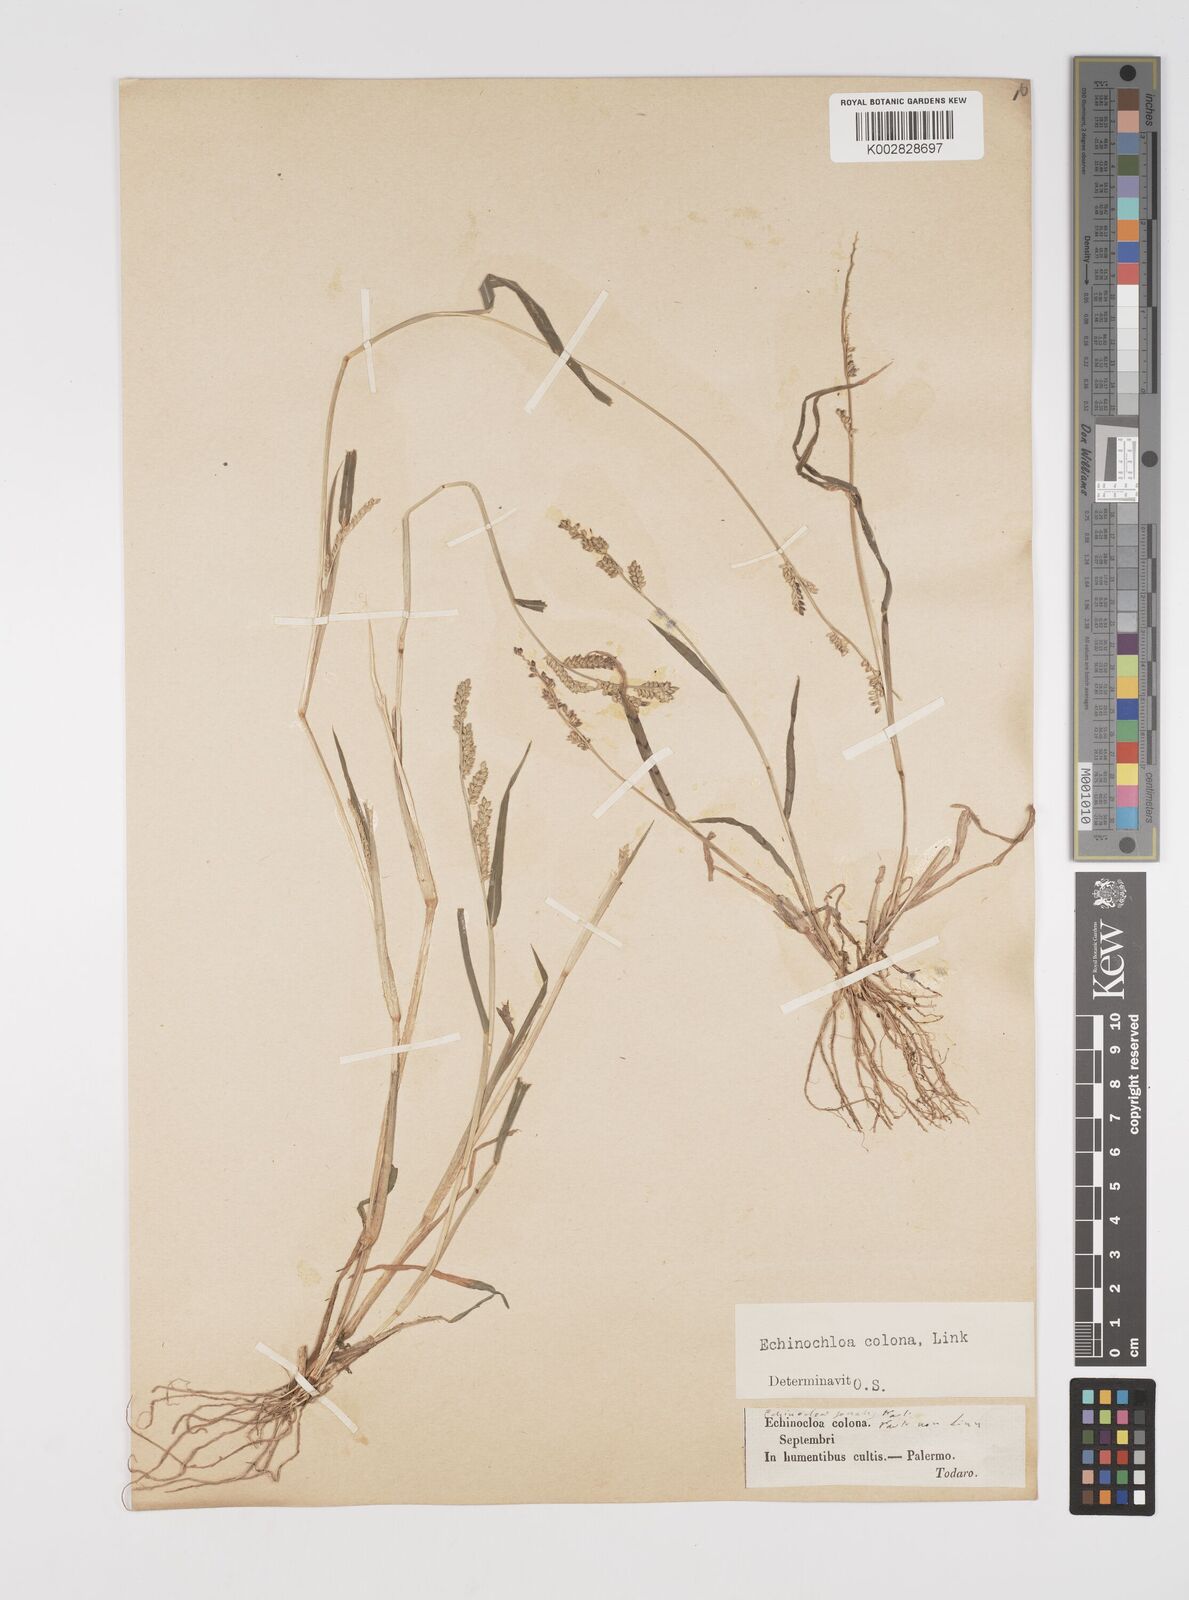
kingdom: Plantae
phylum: Tracheophyta
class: Liliopsida
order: Poales
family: Poaceae
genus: Echinochloa
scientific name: Echinochloa colonum
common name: Jungle rice
